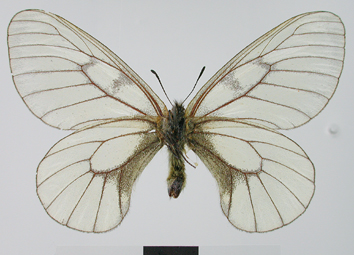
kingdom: Animalia
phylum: Arthropoda
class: Insecta
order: Lepidoptera
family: Papilionidae
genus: Parnassius
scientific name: Parnassius stubbendorfii
